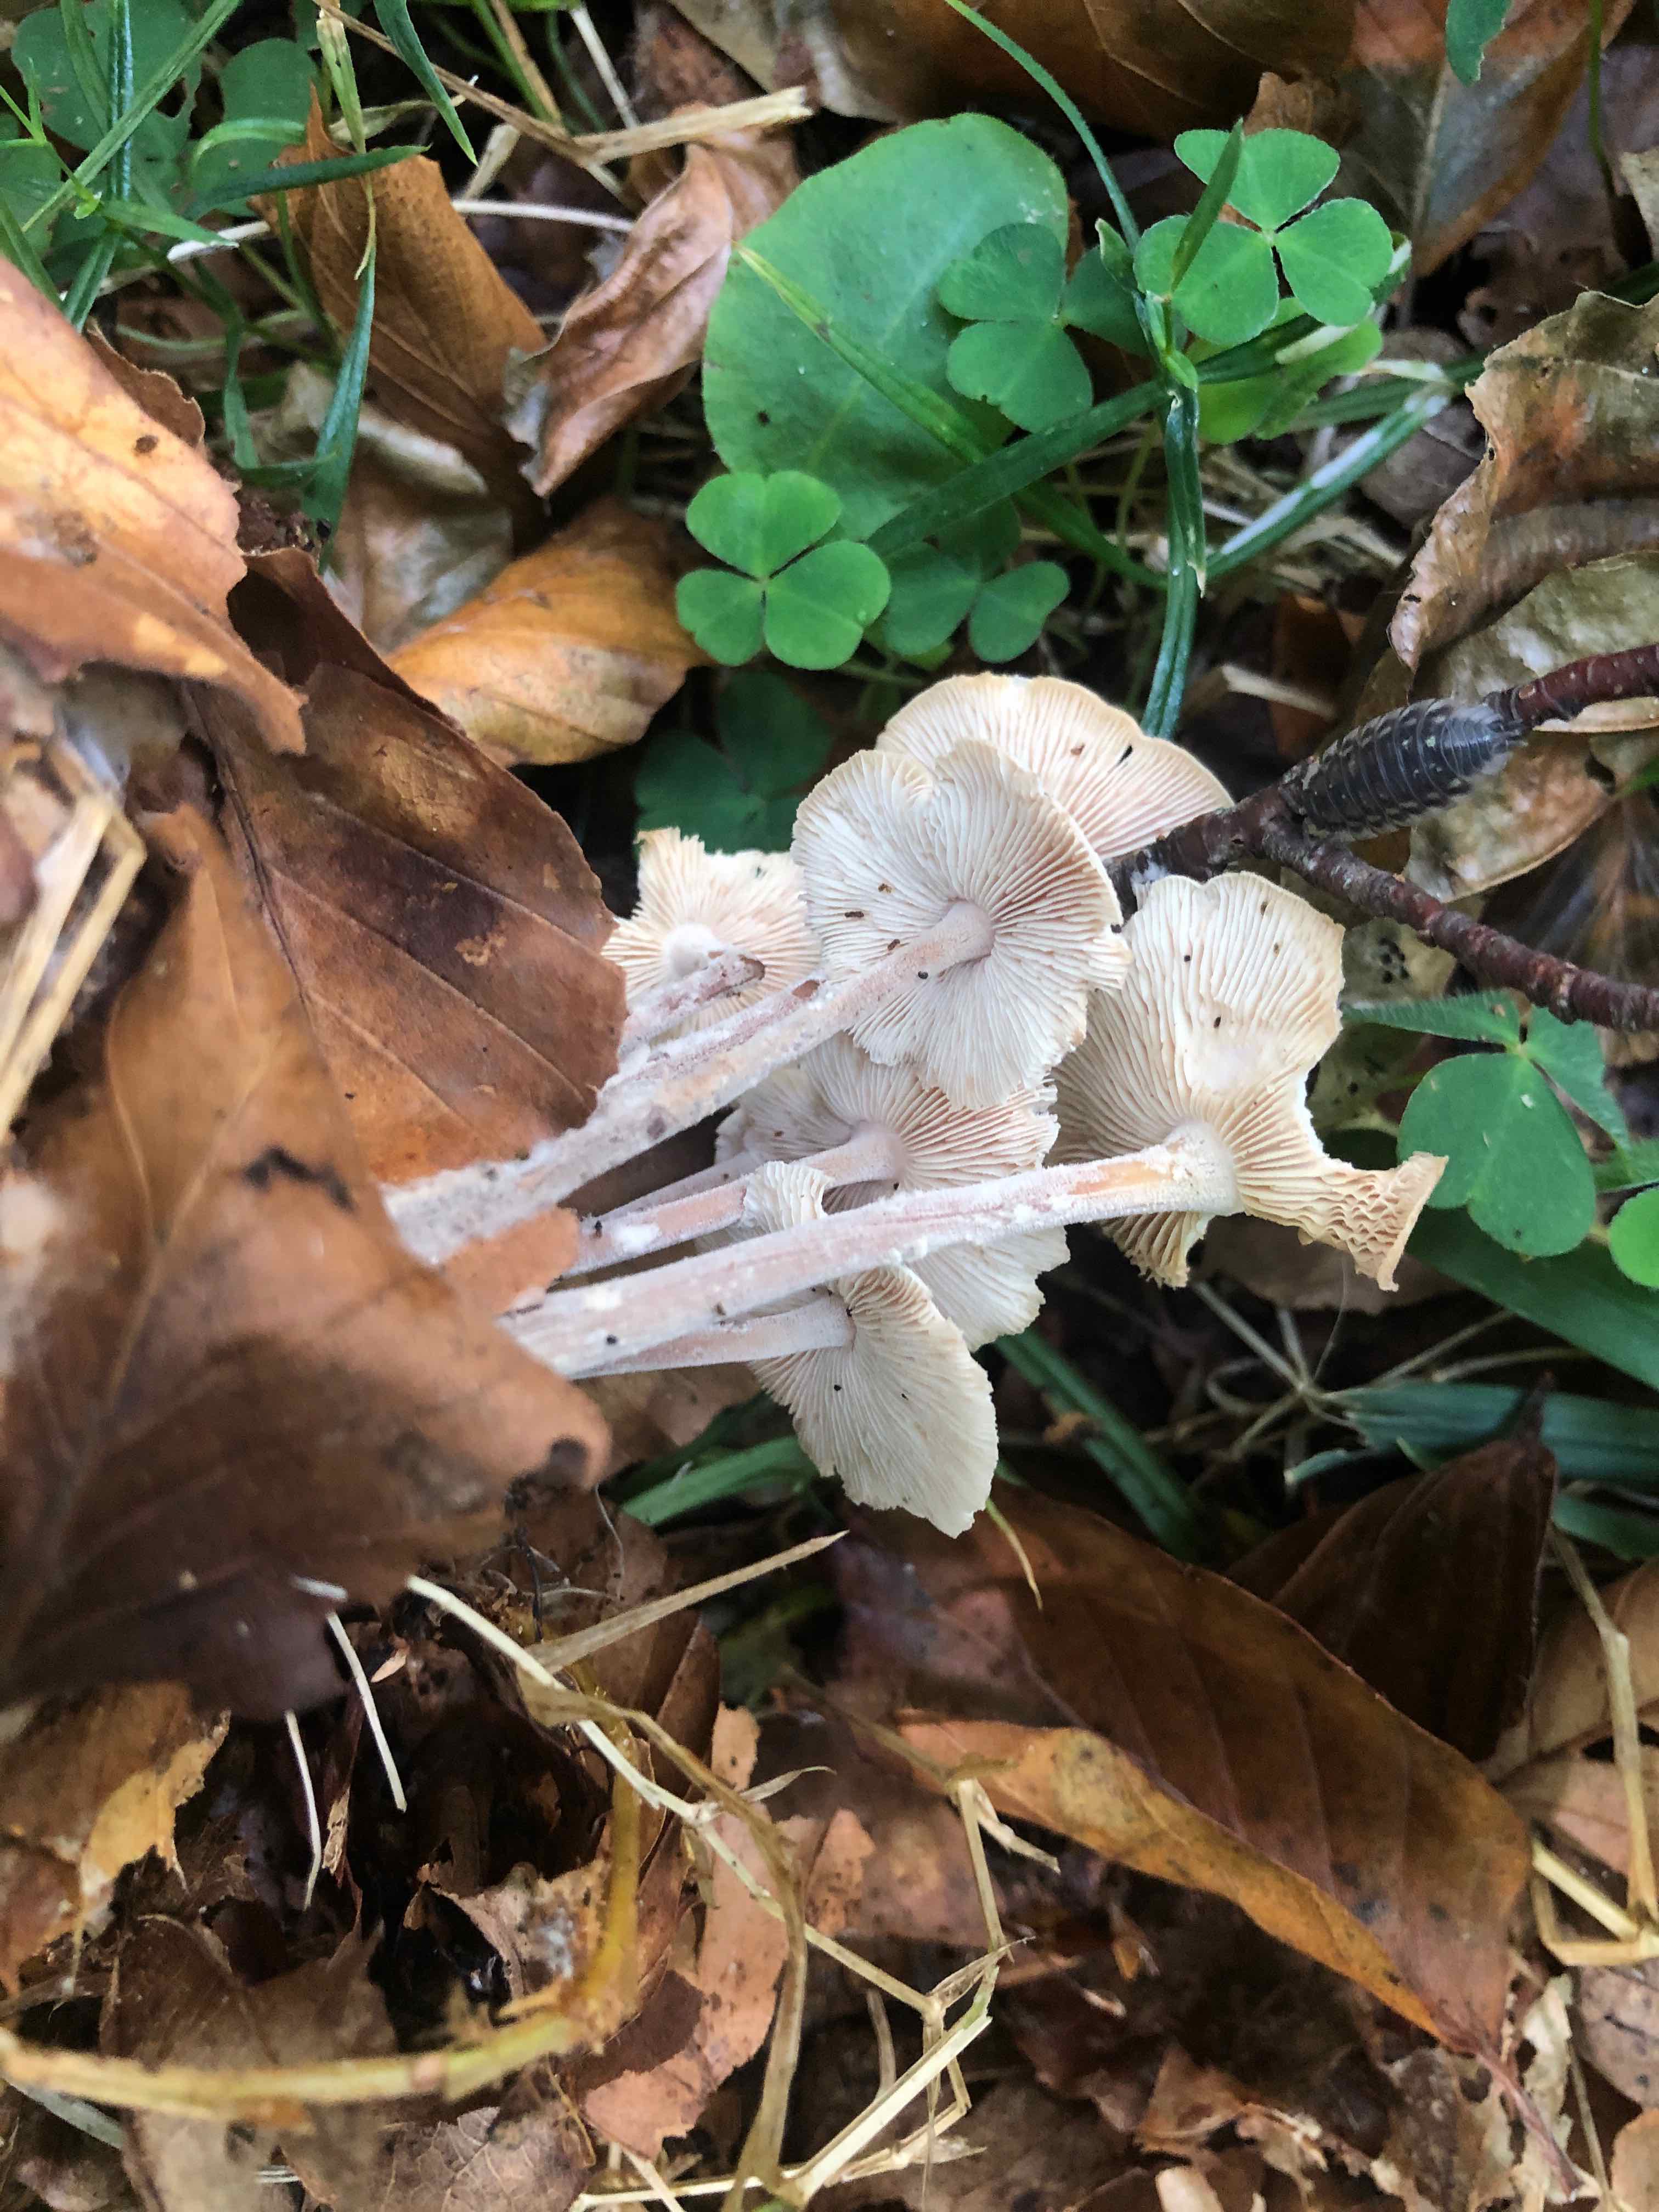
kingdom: Fungi
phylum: Basidiomycota
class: Agaricomycetes
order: Agaricales
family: Omphalotaceae
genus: Collybiopsis
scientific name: Collybiopsis confluens
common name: knippe-fladhat
